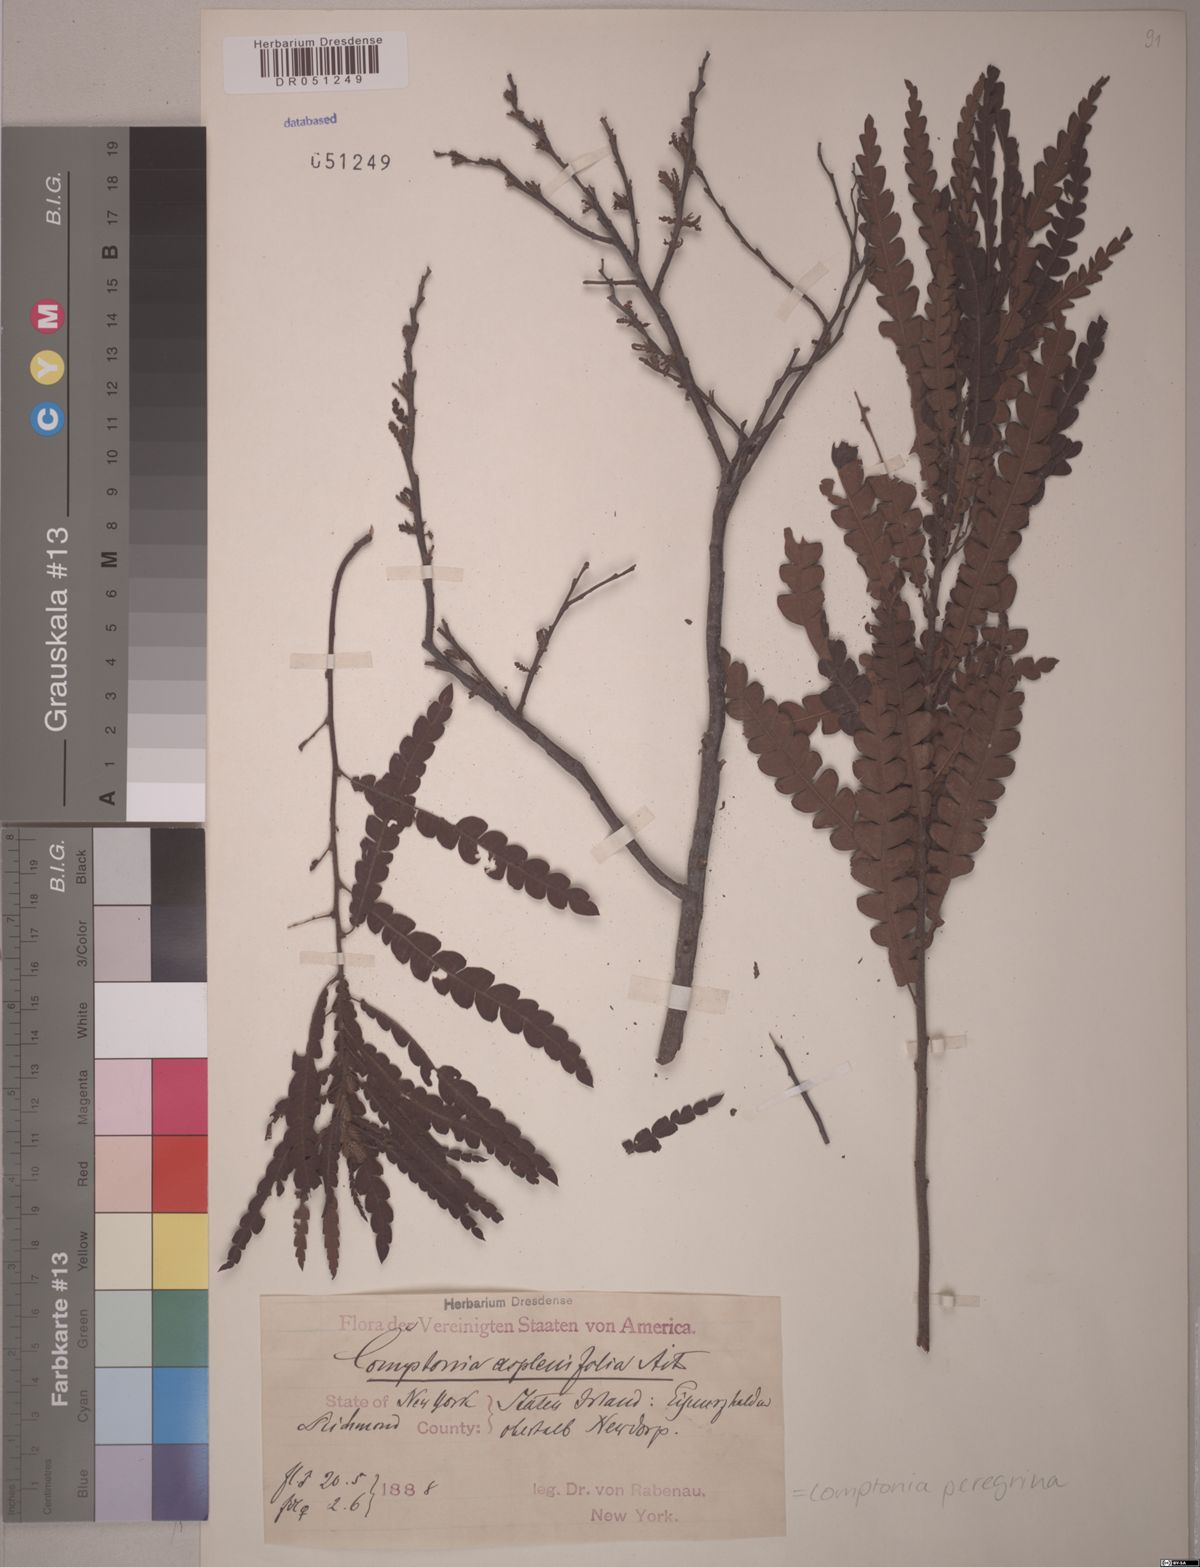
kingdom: Plantae
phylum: Tracheophyta
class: Magnoliopsida
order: Fagales
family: Myricaceae
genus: Comptonia
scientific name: Comptonia peregrina
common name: Sweet-fern
